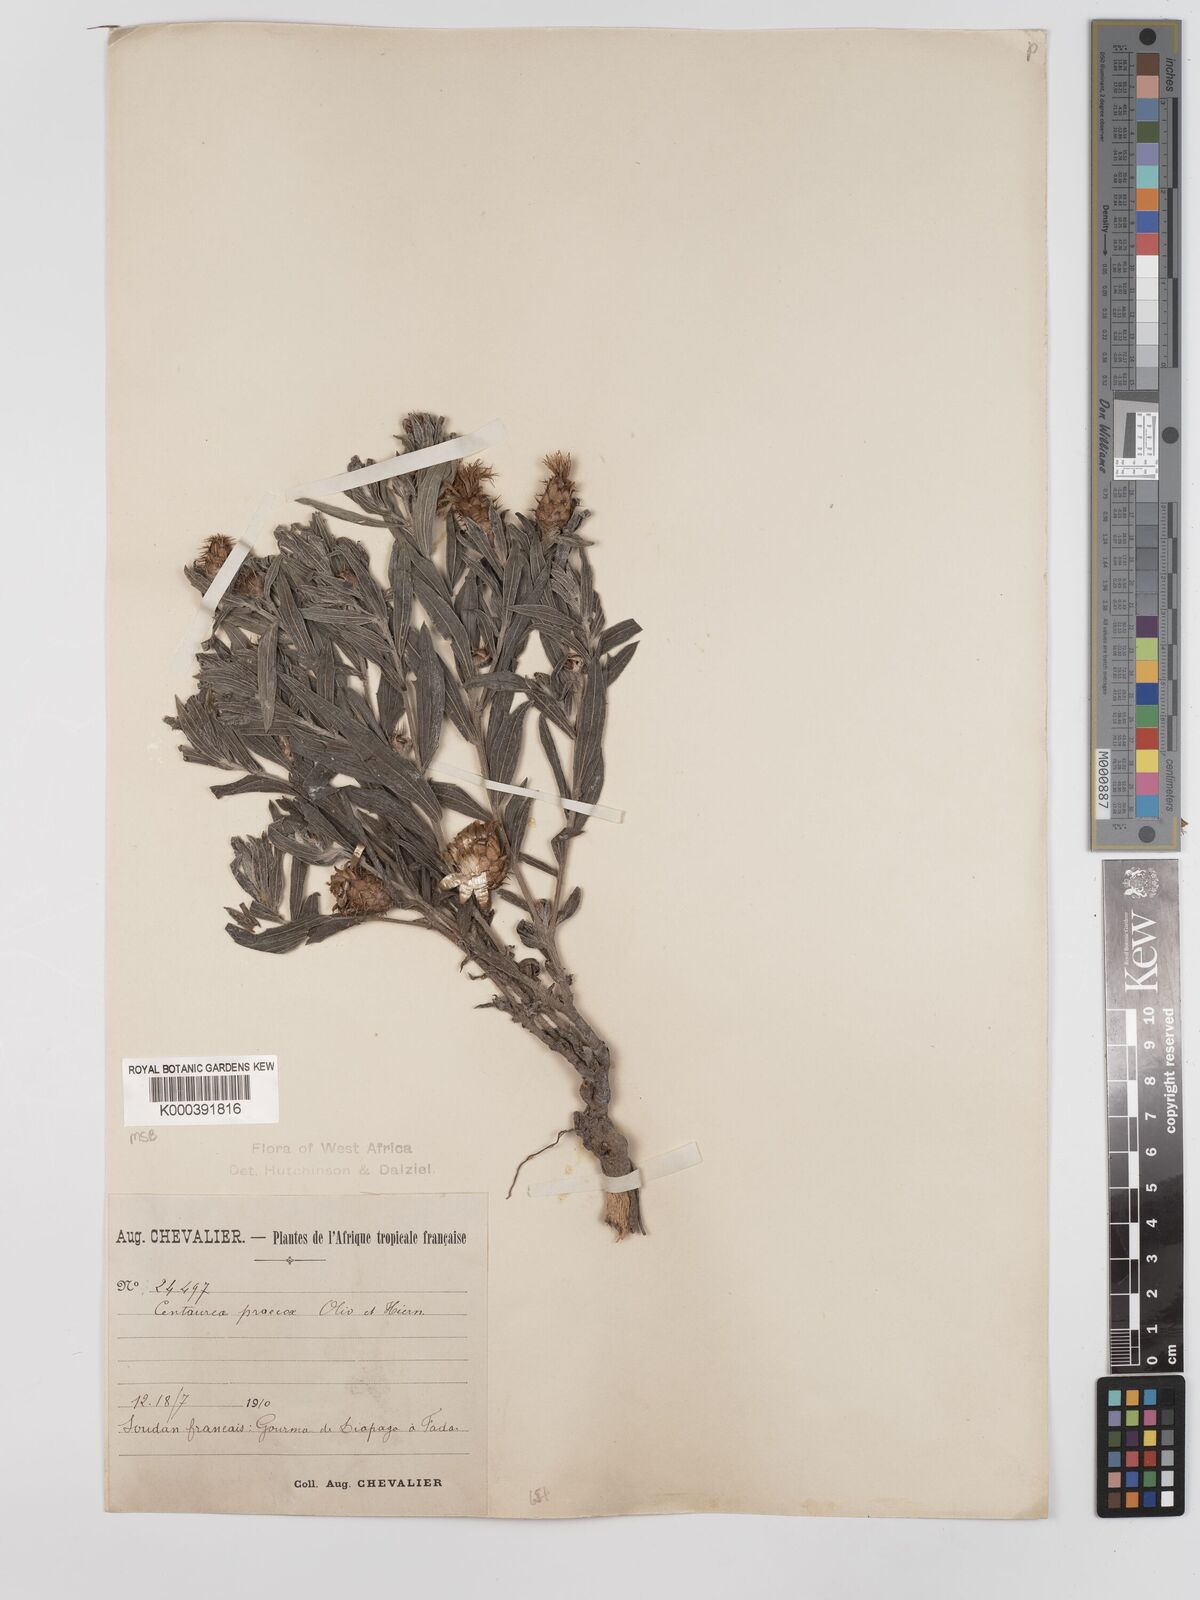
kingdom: Plantae
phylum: Tracheophyta
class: Magnoliopsida
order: Asterales
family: Asteraceae
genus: Centaurea
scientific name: Centaurea praecox
